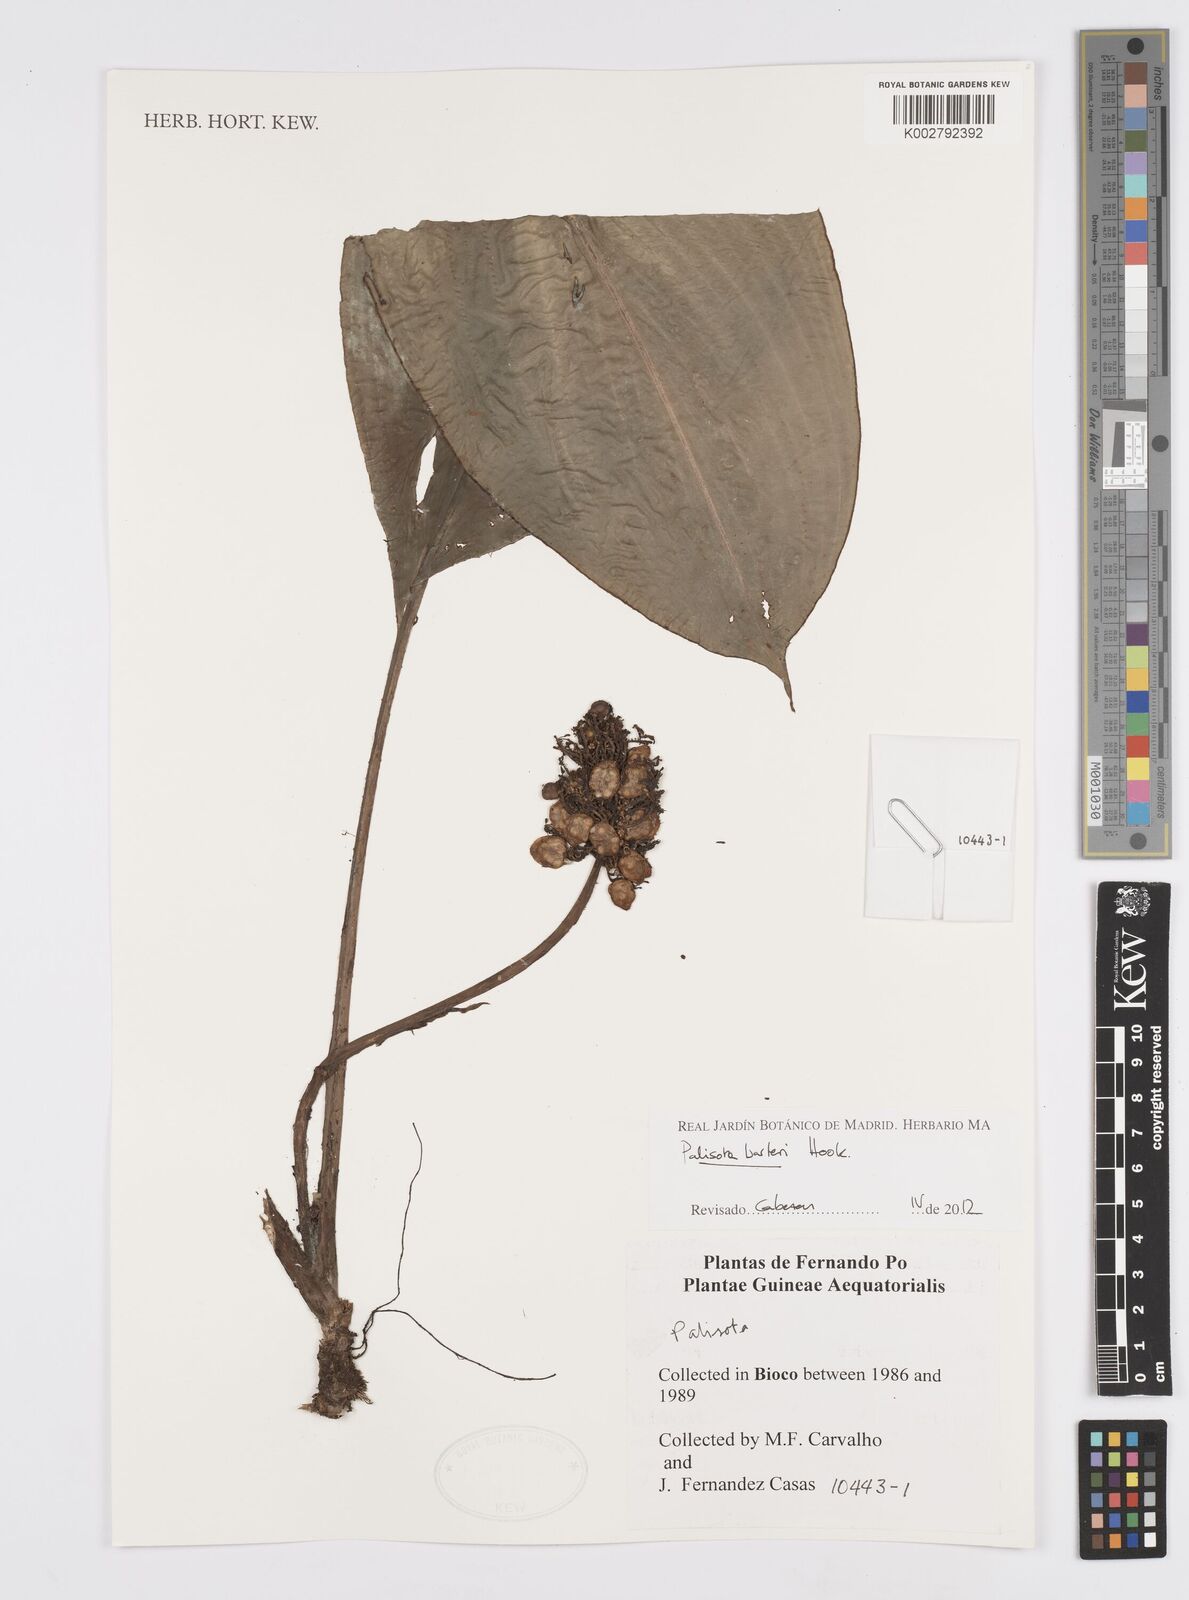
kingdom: Plantae
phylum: Tracheophyta
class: Liliopsida
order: Commelinales
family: Commelinaceae
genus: Palisota
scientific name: Palisota barteri
